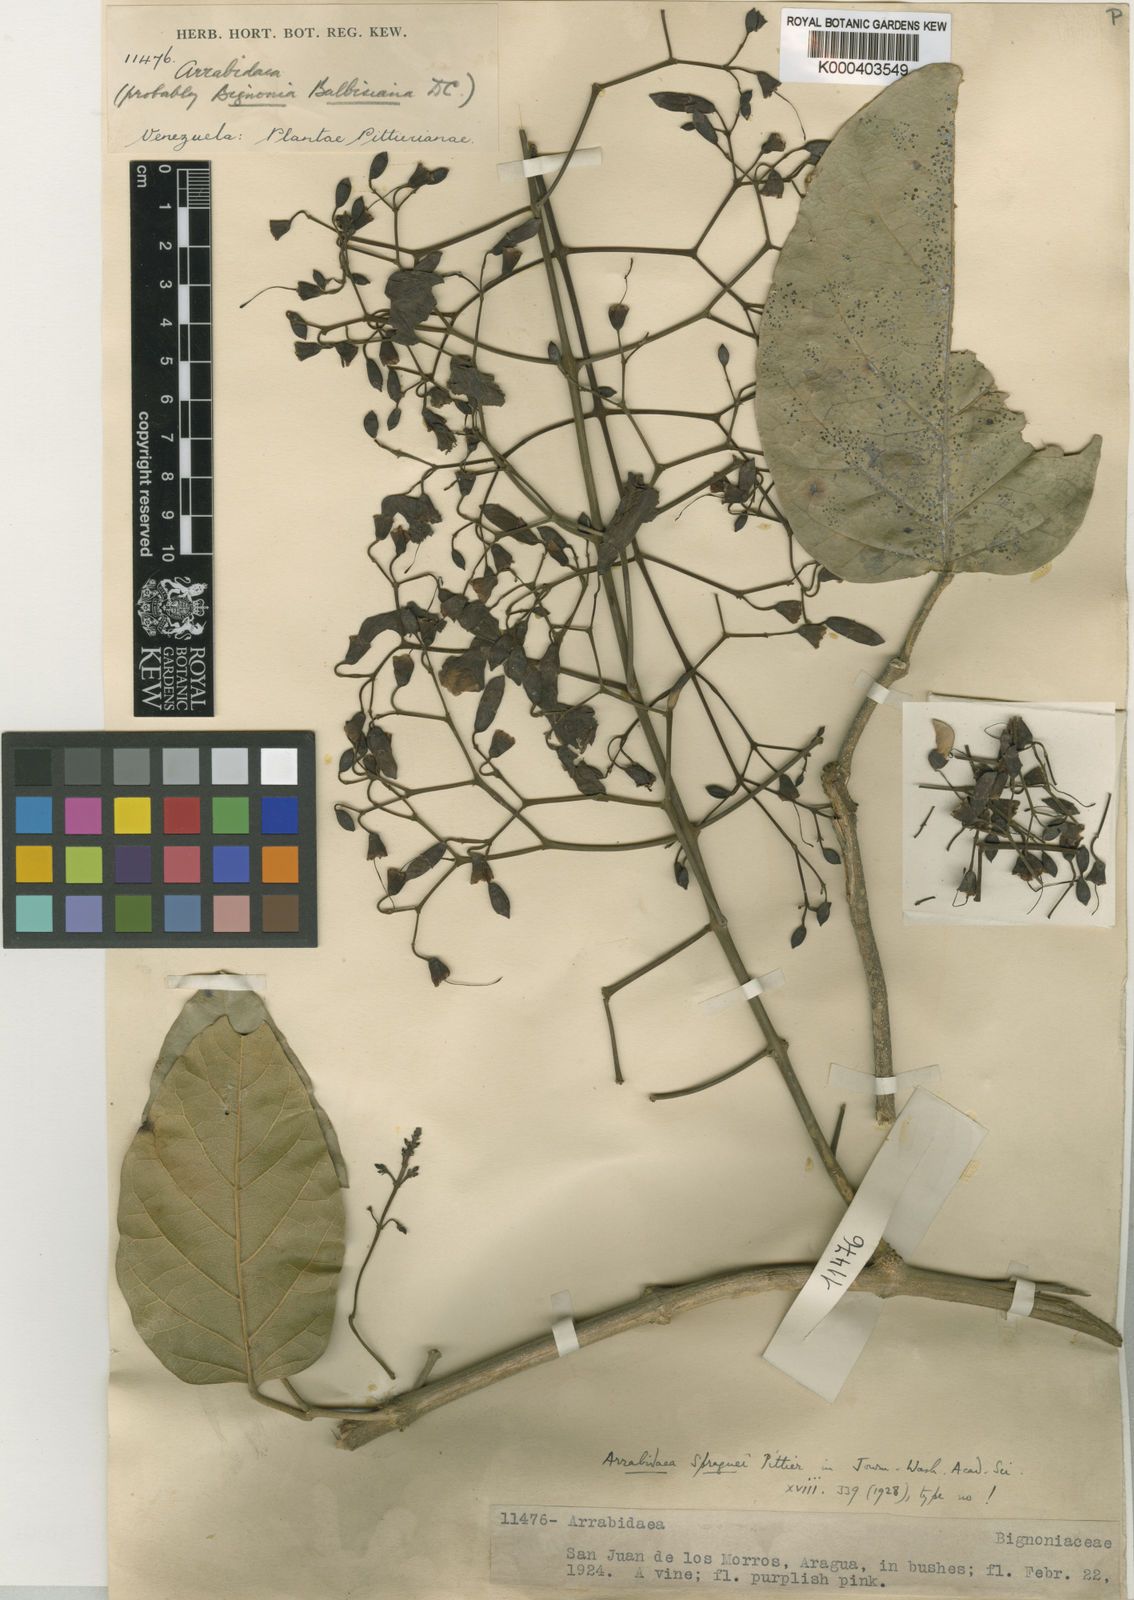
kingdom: Plantae
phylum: Tracheophyta
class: Magnoliopsida
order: Lamiales
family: Bignoniaceae
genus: Tanaecium
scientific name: Tanaecium
